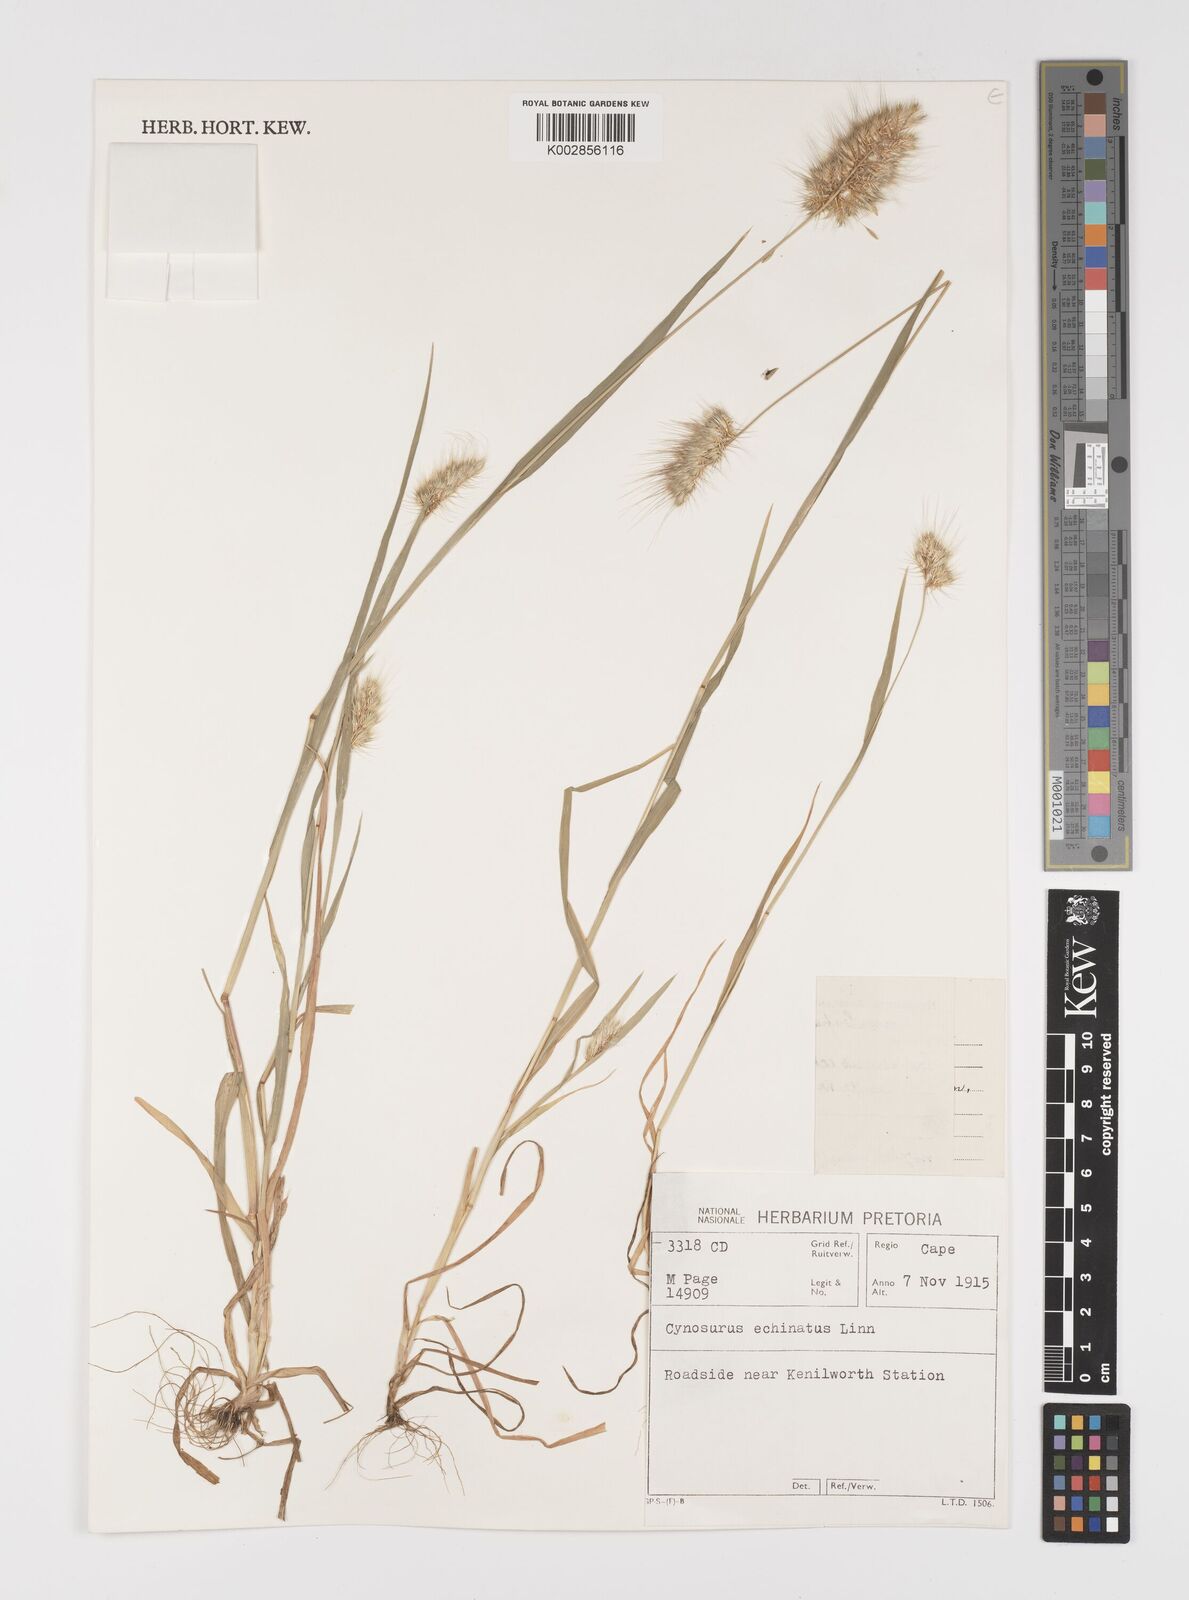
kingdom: Plantae
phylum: Tracheophyta
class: Liliopsida
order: Poales
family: Poaceae
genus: Cynosurus
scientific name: Cynosurus echinatus
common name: Rough dog's-tail
